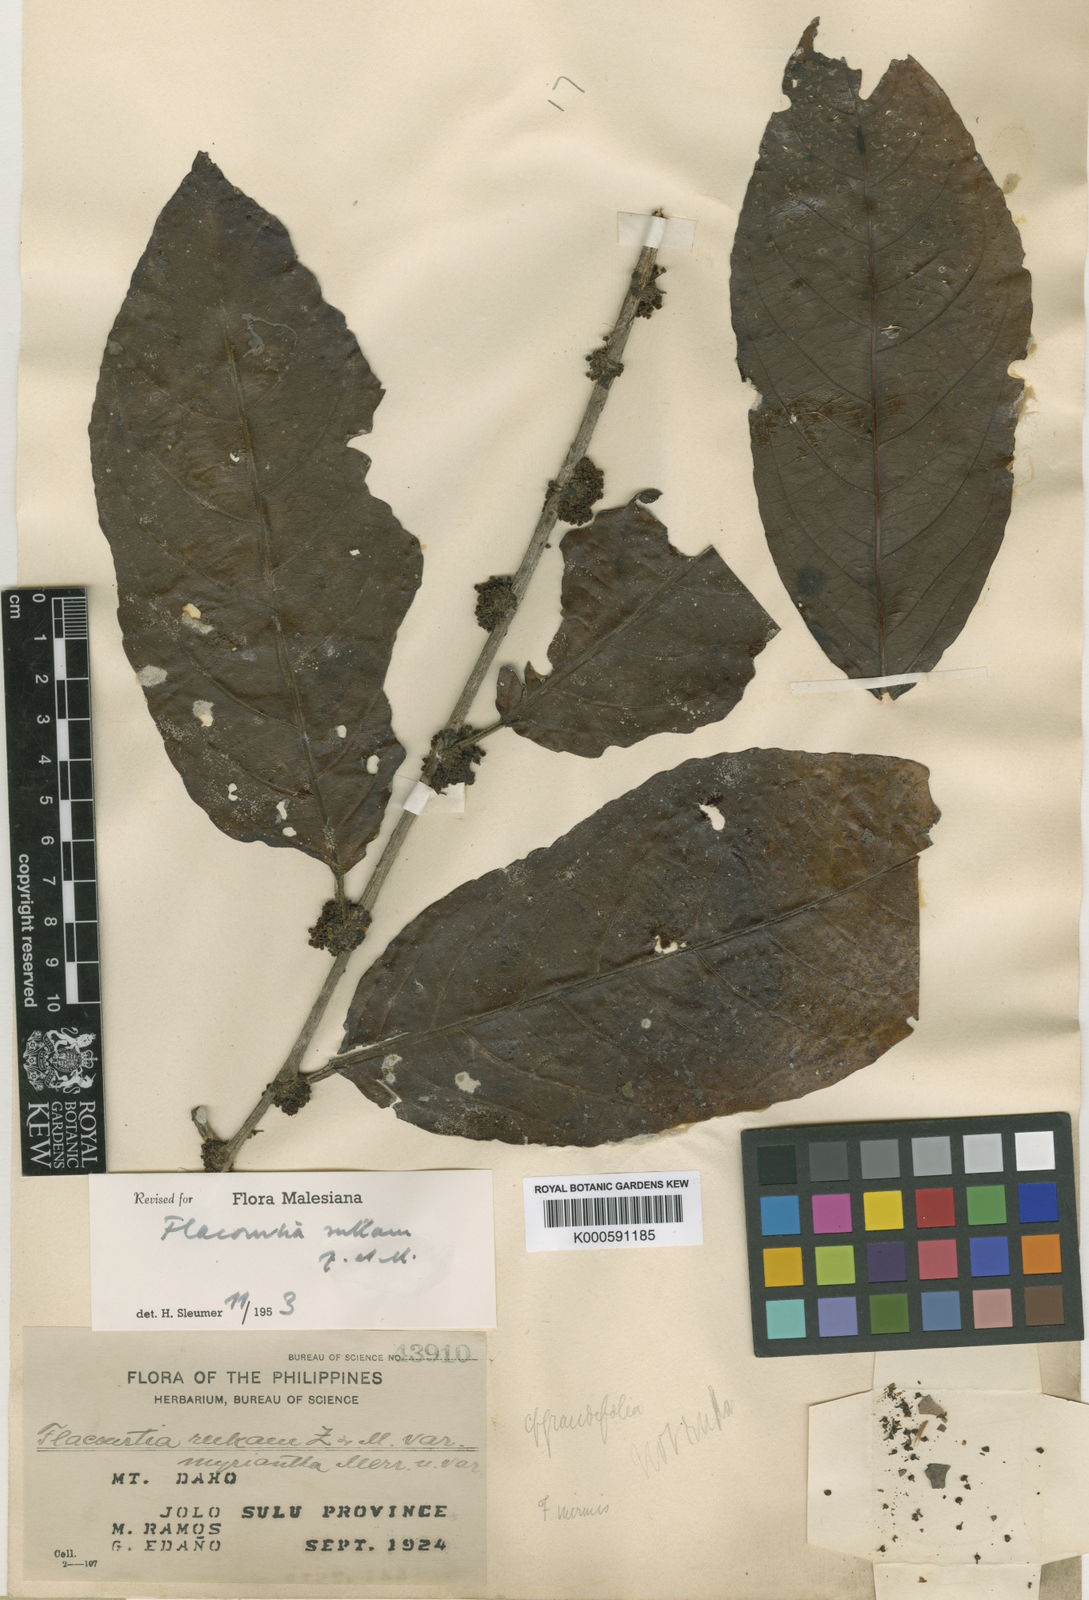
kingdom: Plantae
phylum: Tracheophyta
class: Magnoliopsida
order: Malpighiales
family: Salicaceae
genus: Flacourtia
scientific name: Flacourtia rukam
